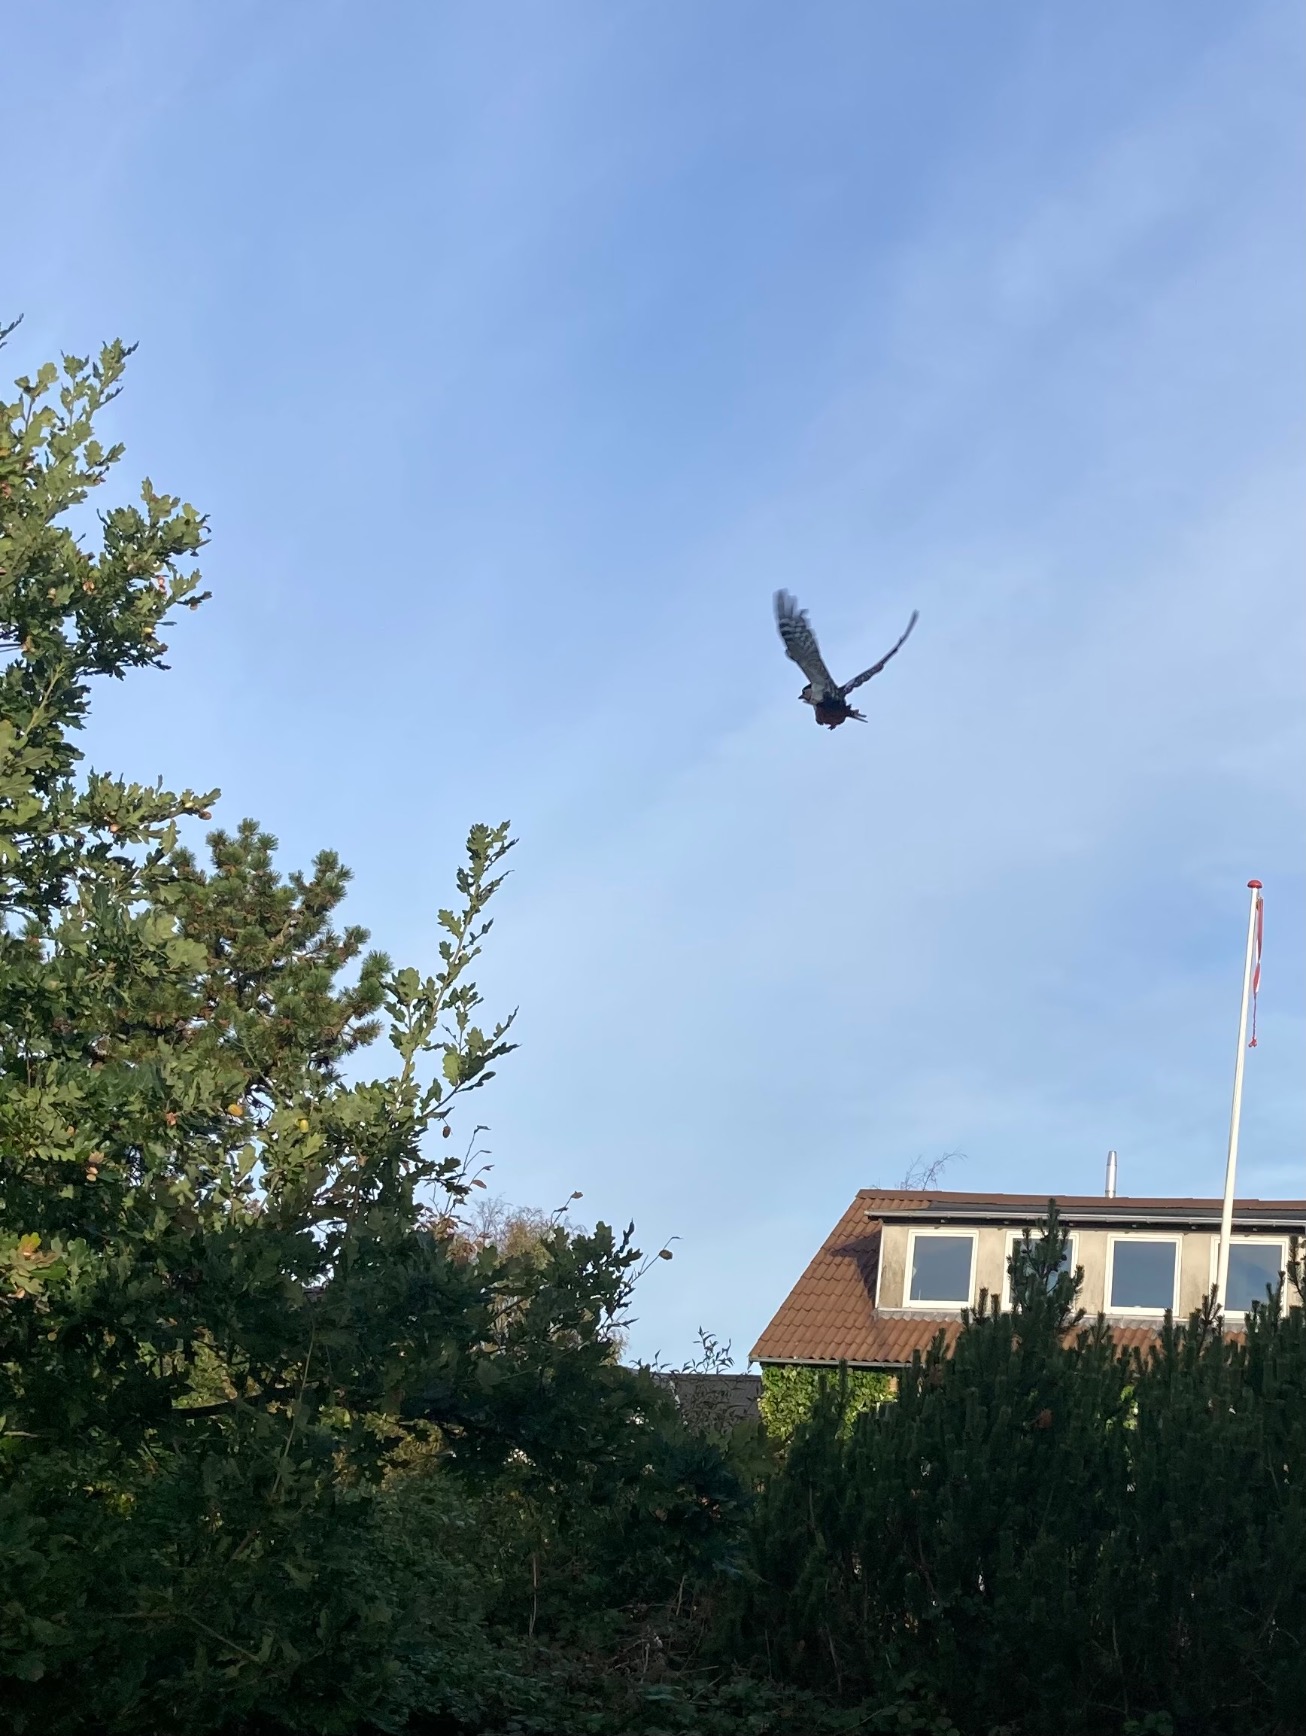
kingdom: Animalia
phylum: Chordata
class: Aves
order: Piciformes
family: Picidae
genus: Dendrocopos
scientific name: Dendrocopos major
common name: Stor flagspætte
